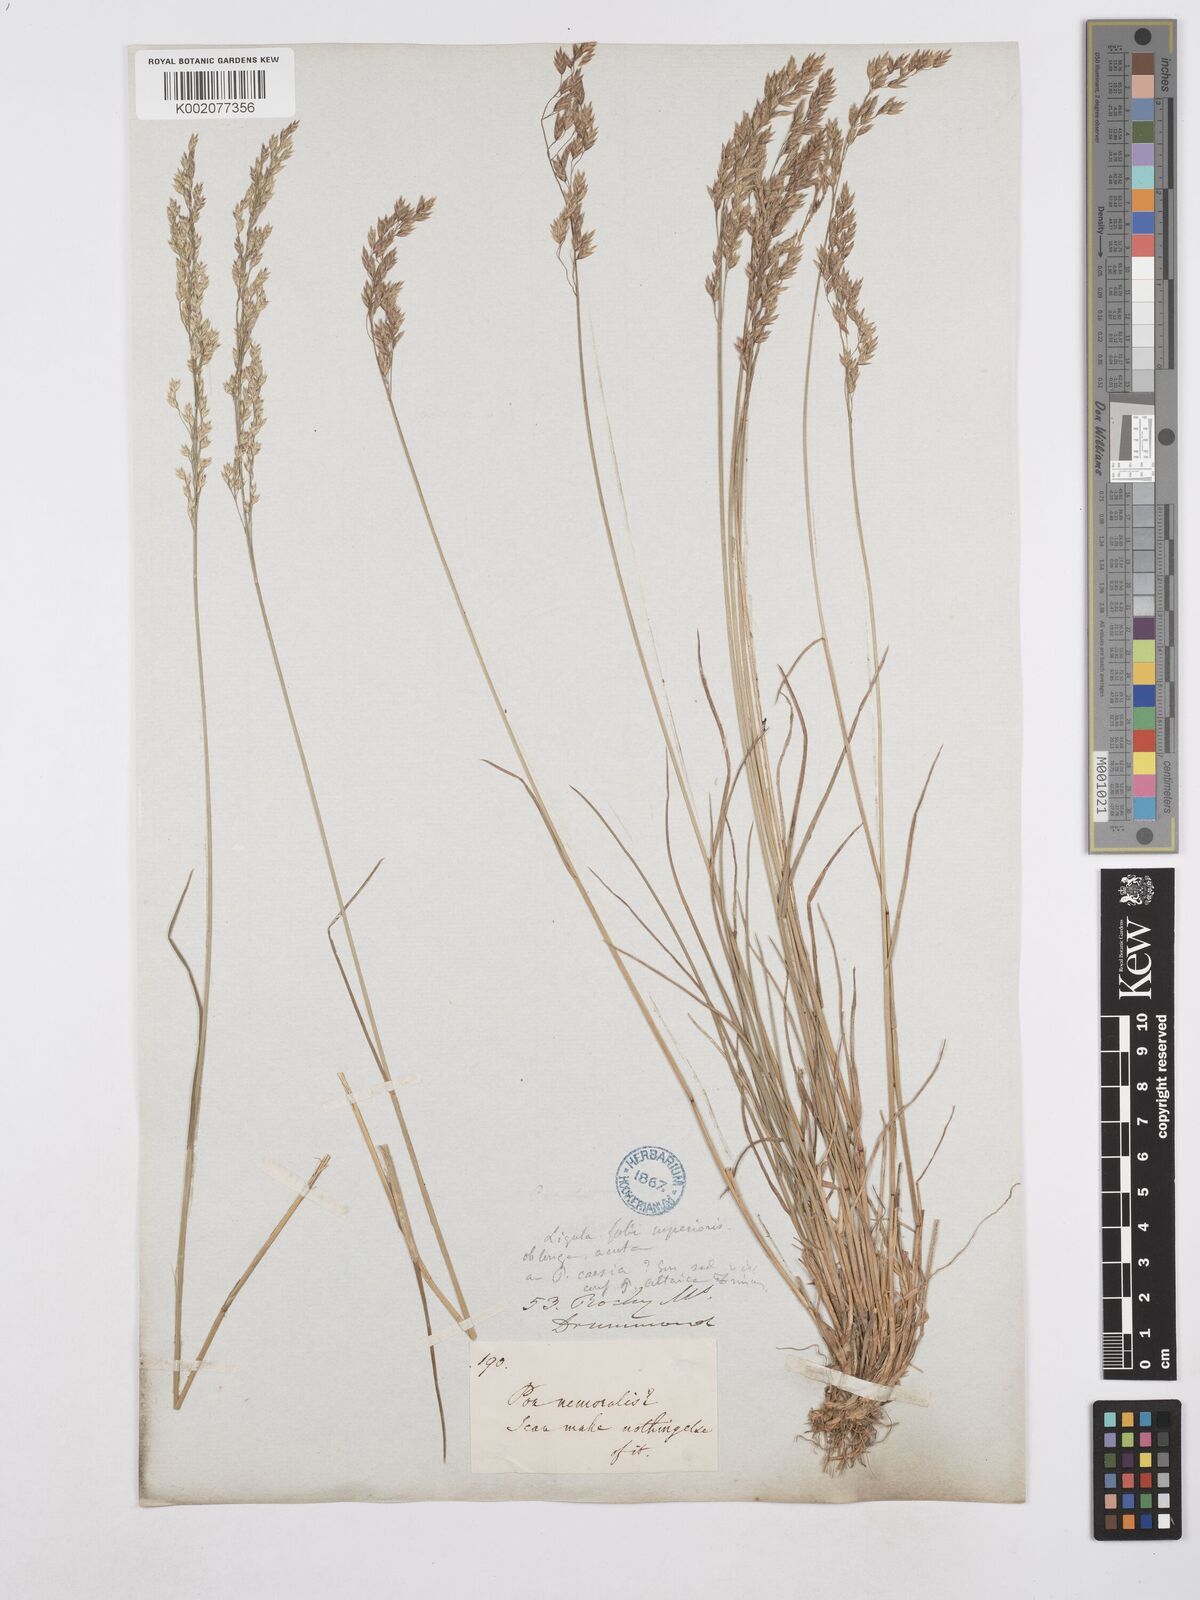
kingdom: Plantae
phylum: Tracheophyta
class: Liliopsida
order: Poales
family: Poaceae
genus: Poa
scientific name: Poa glauca
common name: Glaucous bluegrass
